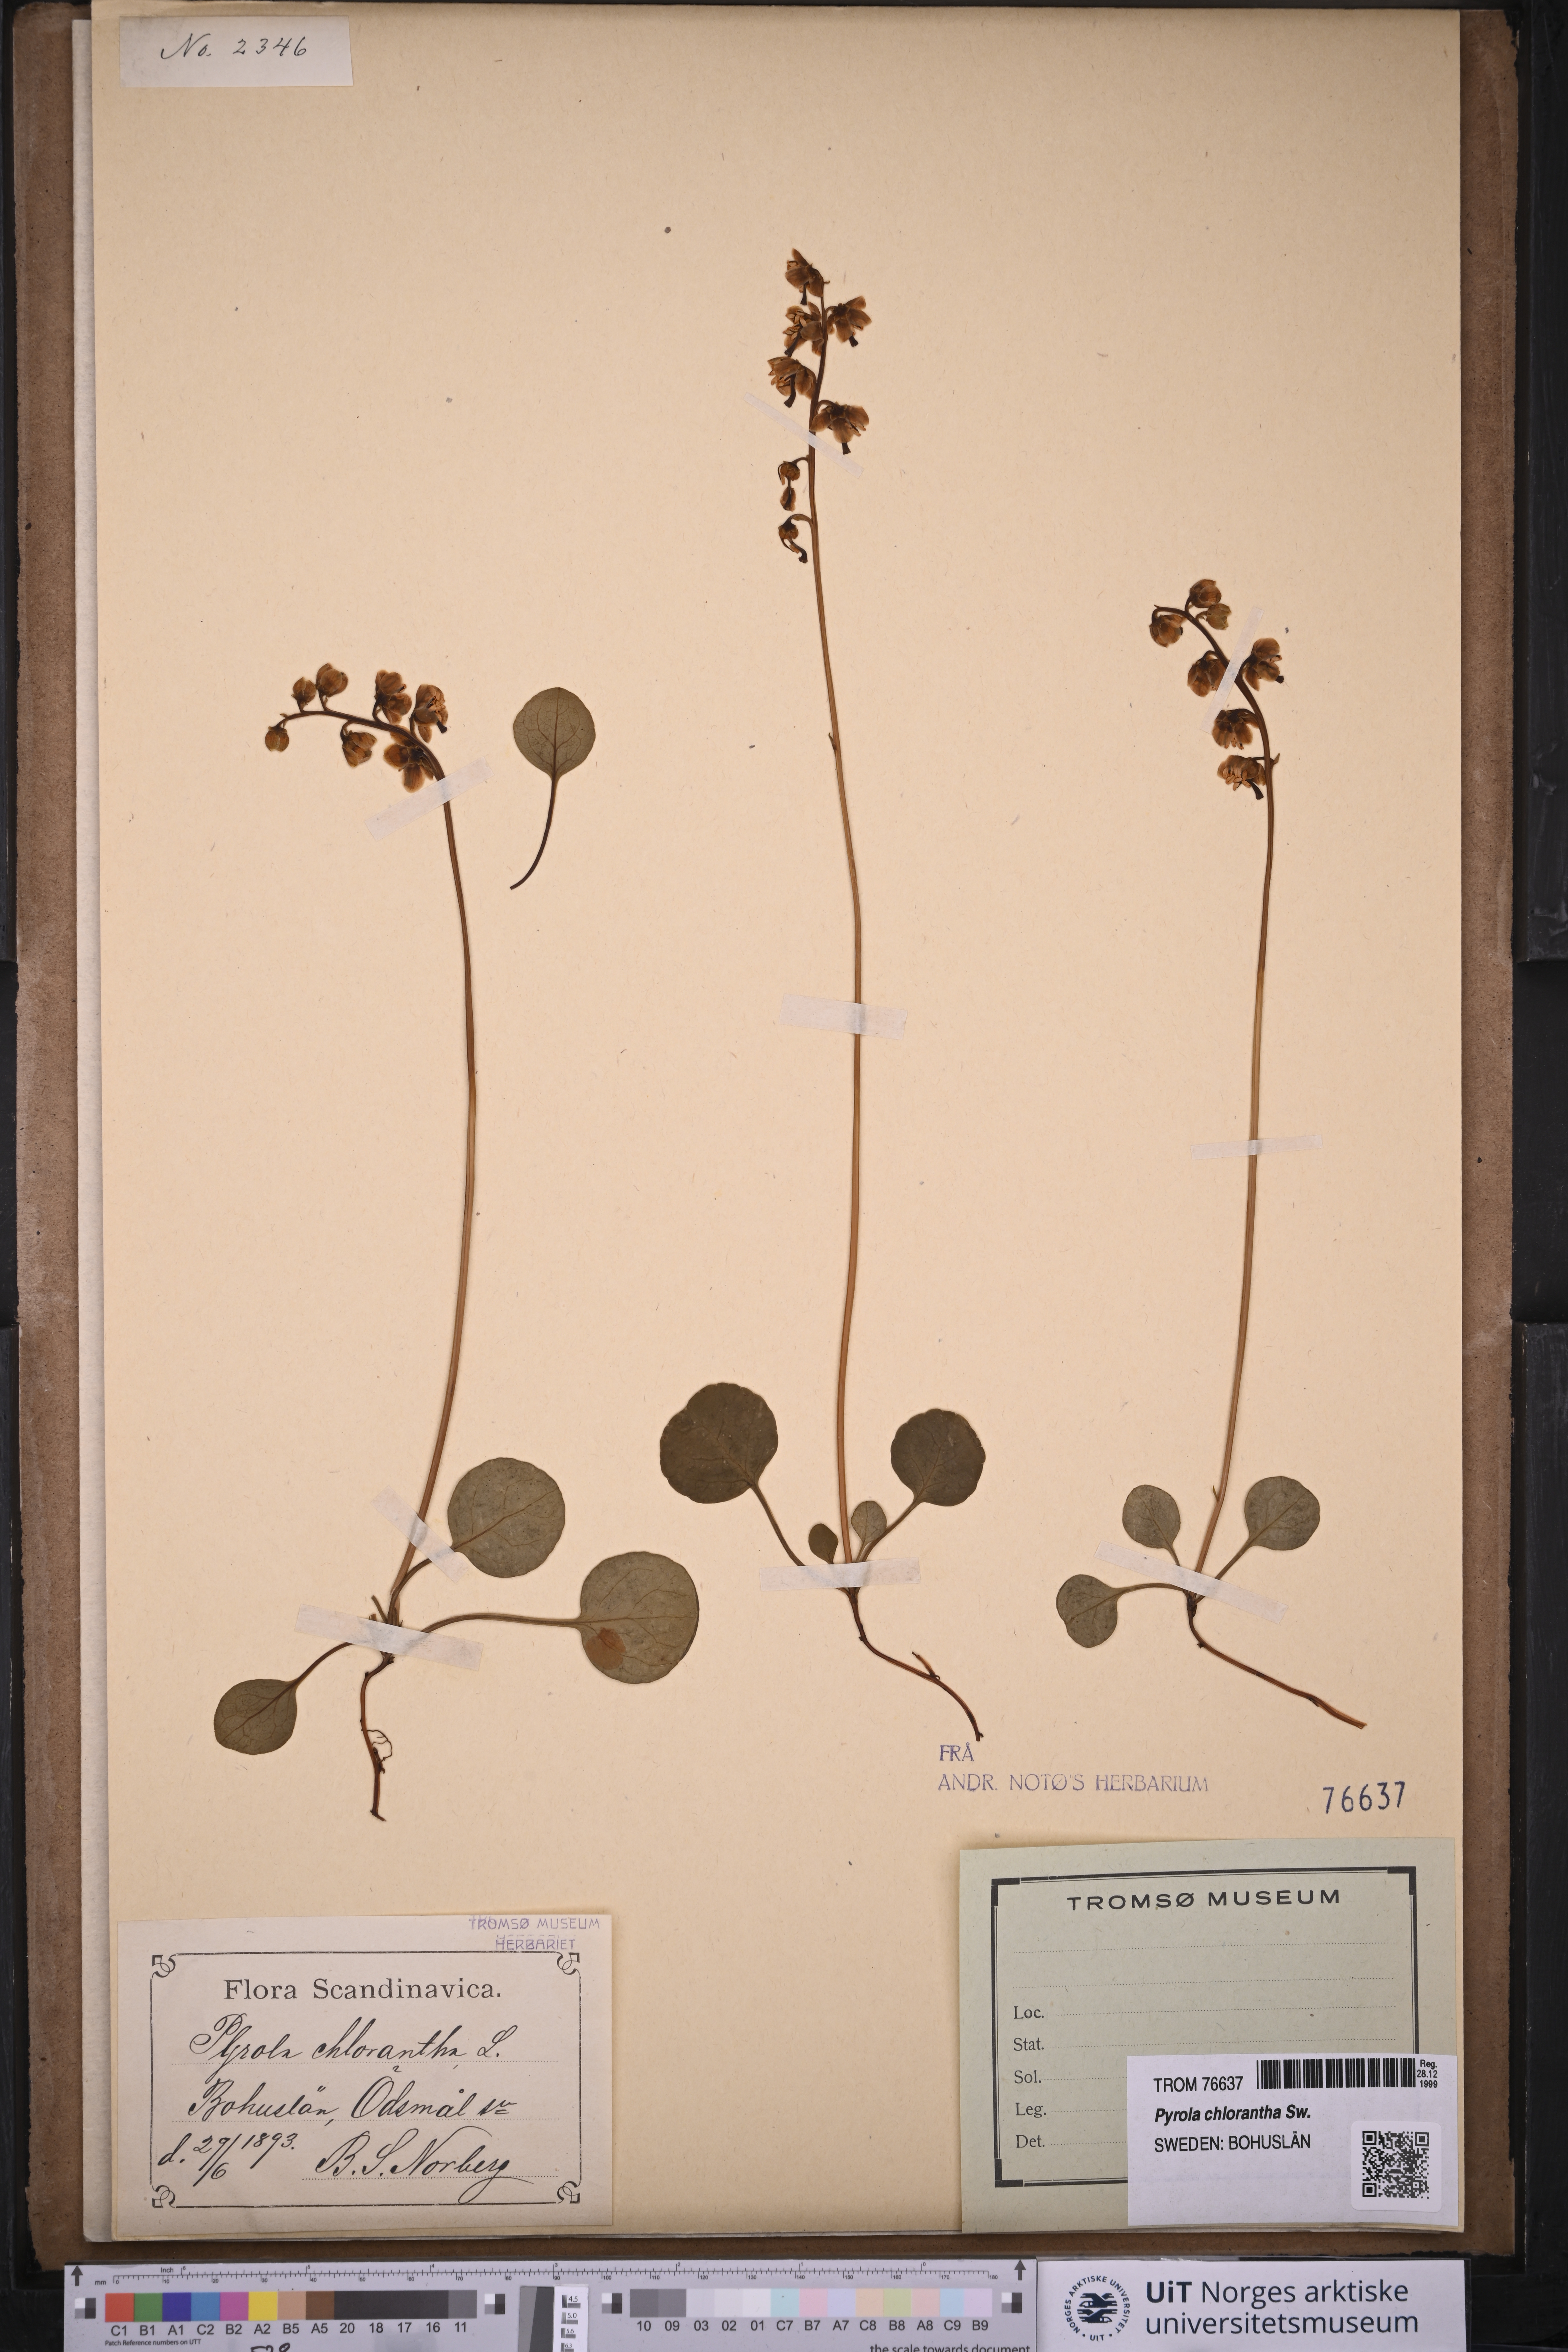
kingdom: Plantae
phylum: Tracheophyta
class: Magnoliopsida
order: Ericales
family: Ericaceae
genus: Pyrola
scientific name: Pyrola chlorantha
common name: Green wintergreen
